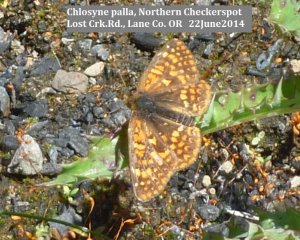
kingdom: Animalia
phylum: Arthropoda
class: Insecta
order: Lepidoptera
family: Nymphalidae
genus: Chlosyne
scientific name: Chlosyne palla
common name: Northern Checkerspot
